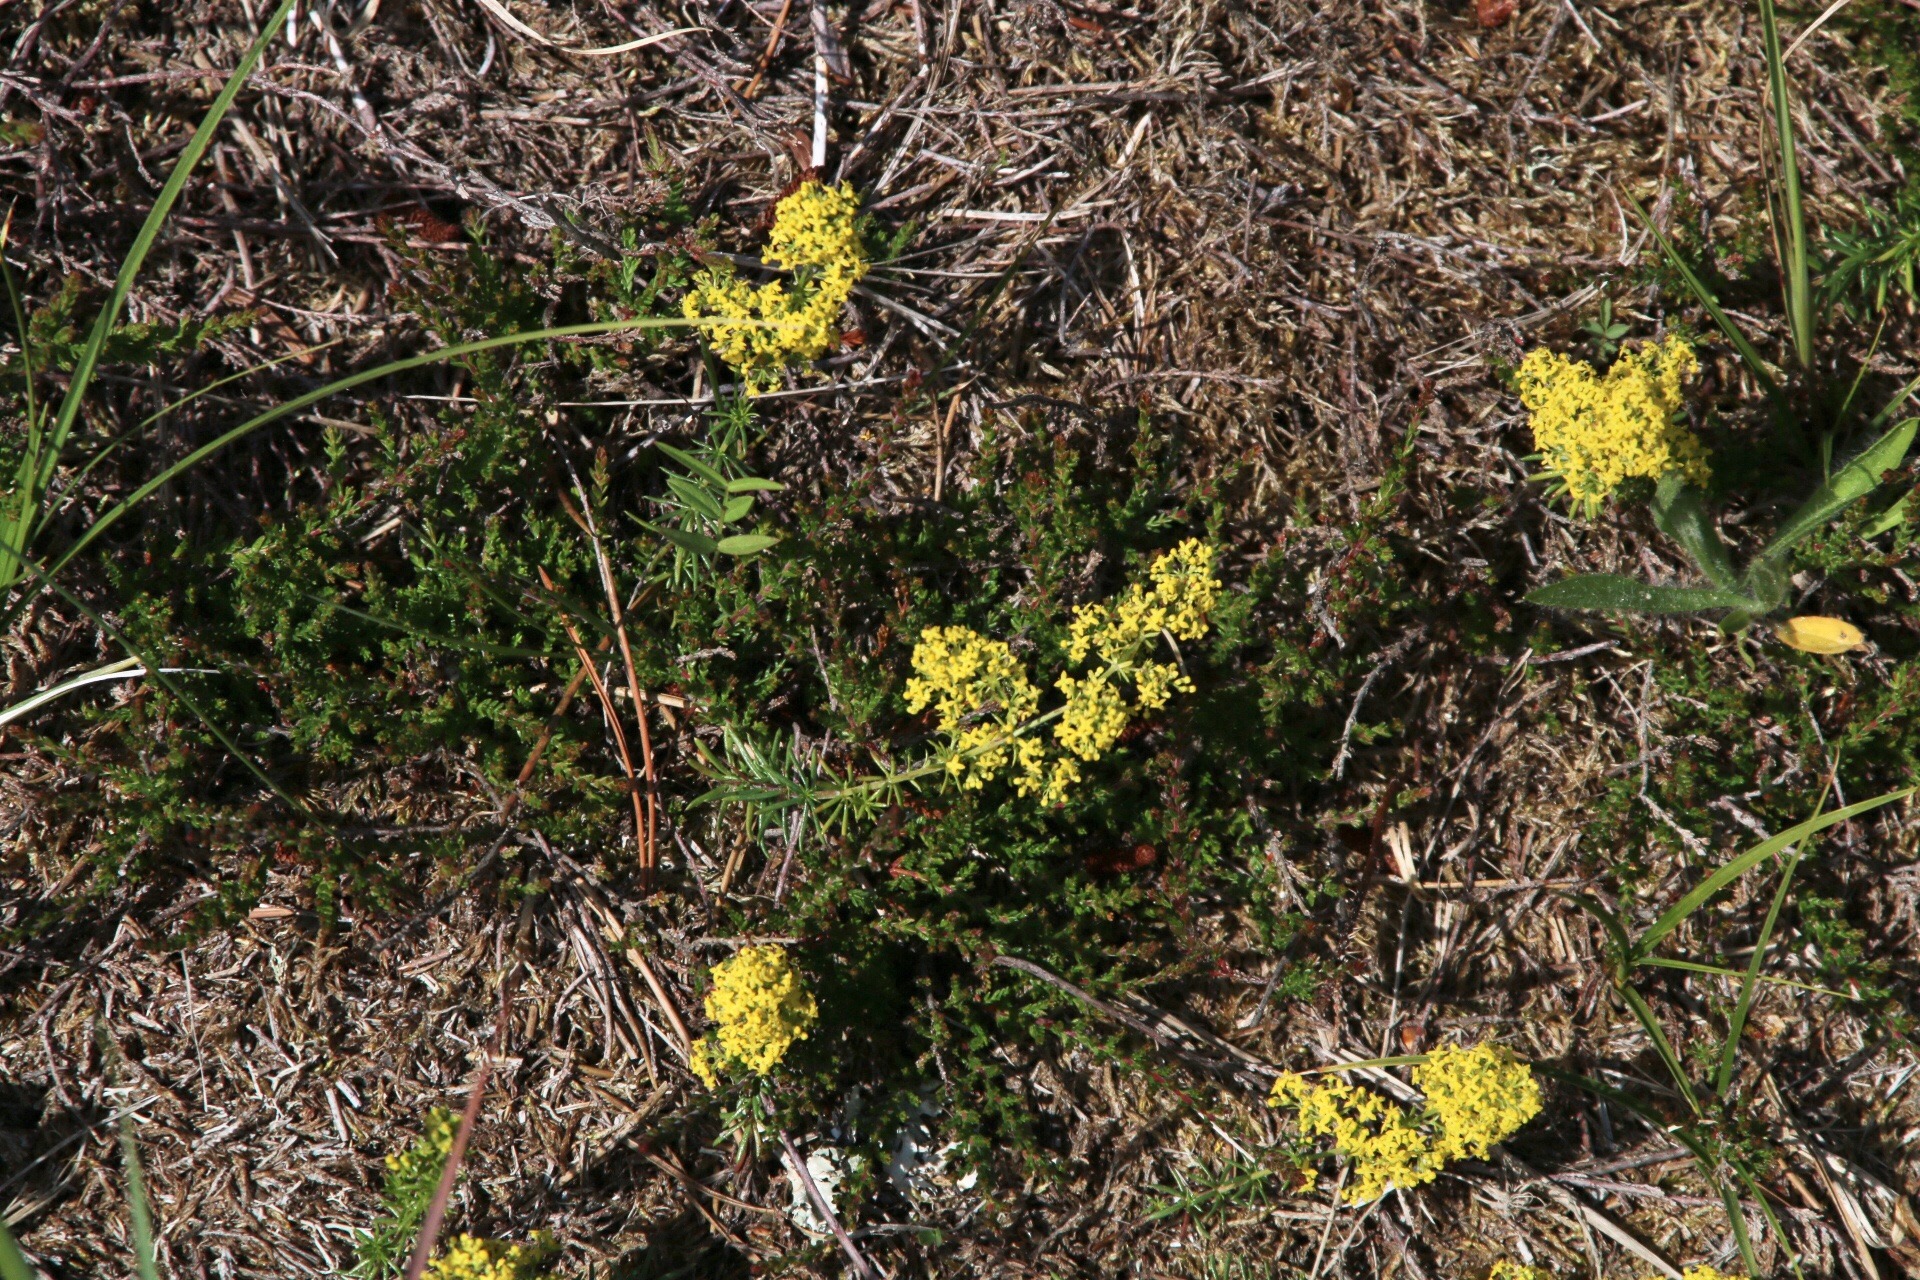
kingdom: Plantae
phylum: Tracheophyta
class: Magnoliopsida
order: Gentianales
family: Rubiaceae
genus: Galium
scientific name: Galium verum
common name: Gul snerre
